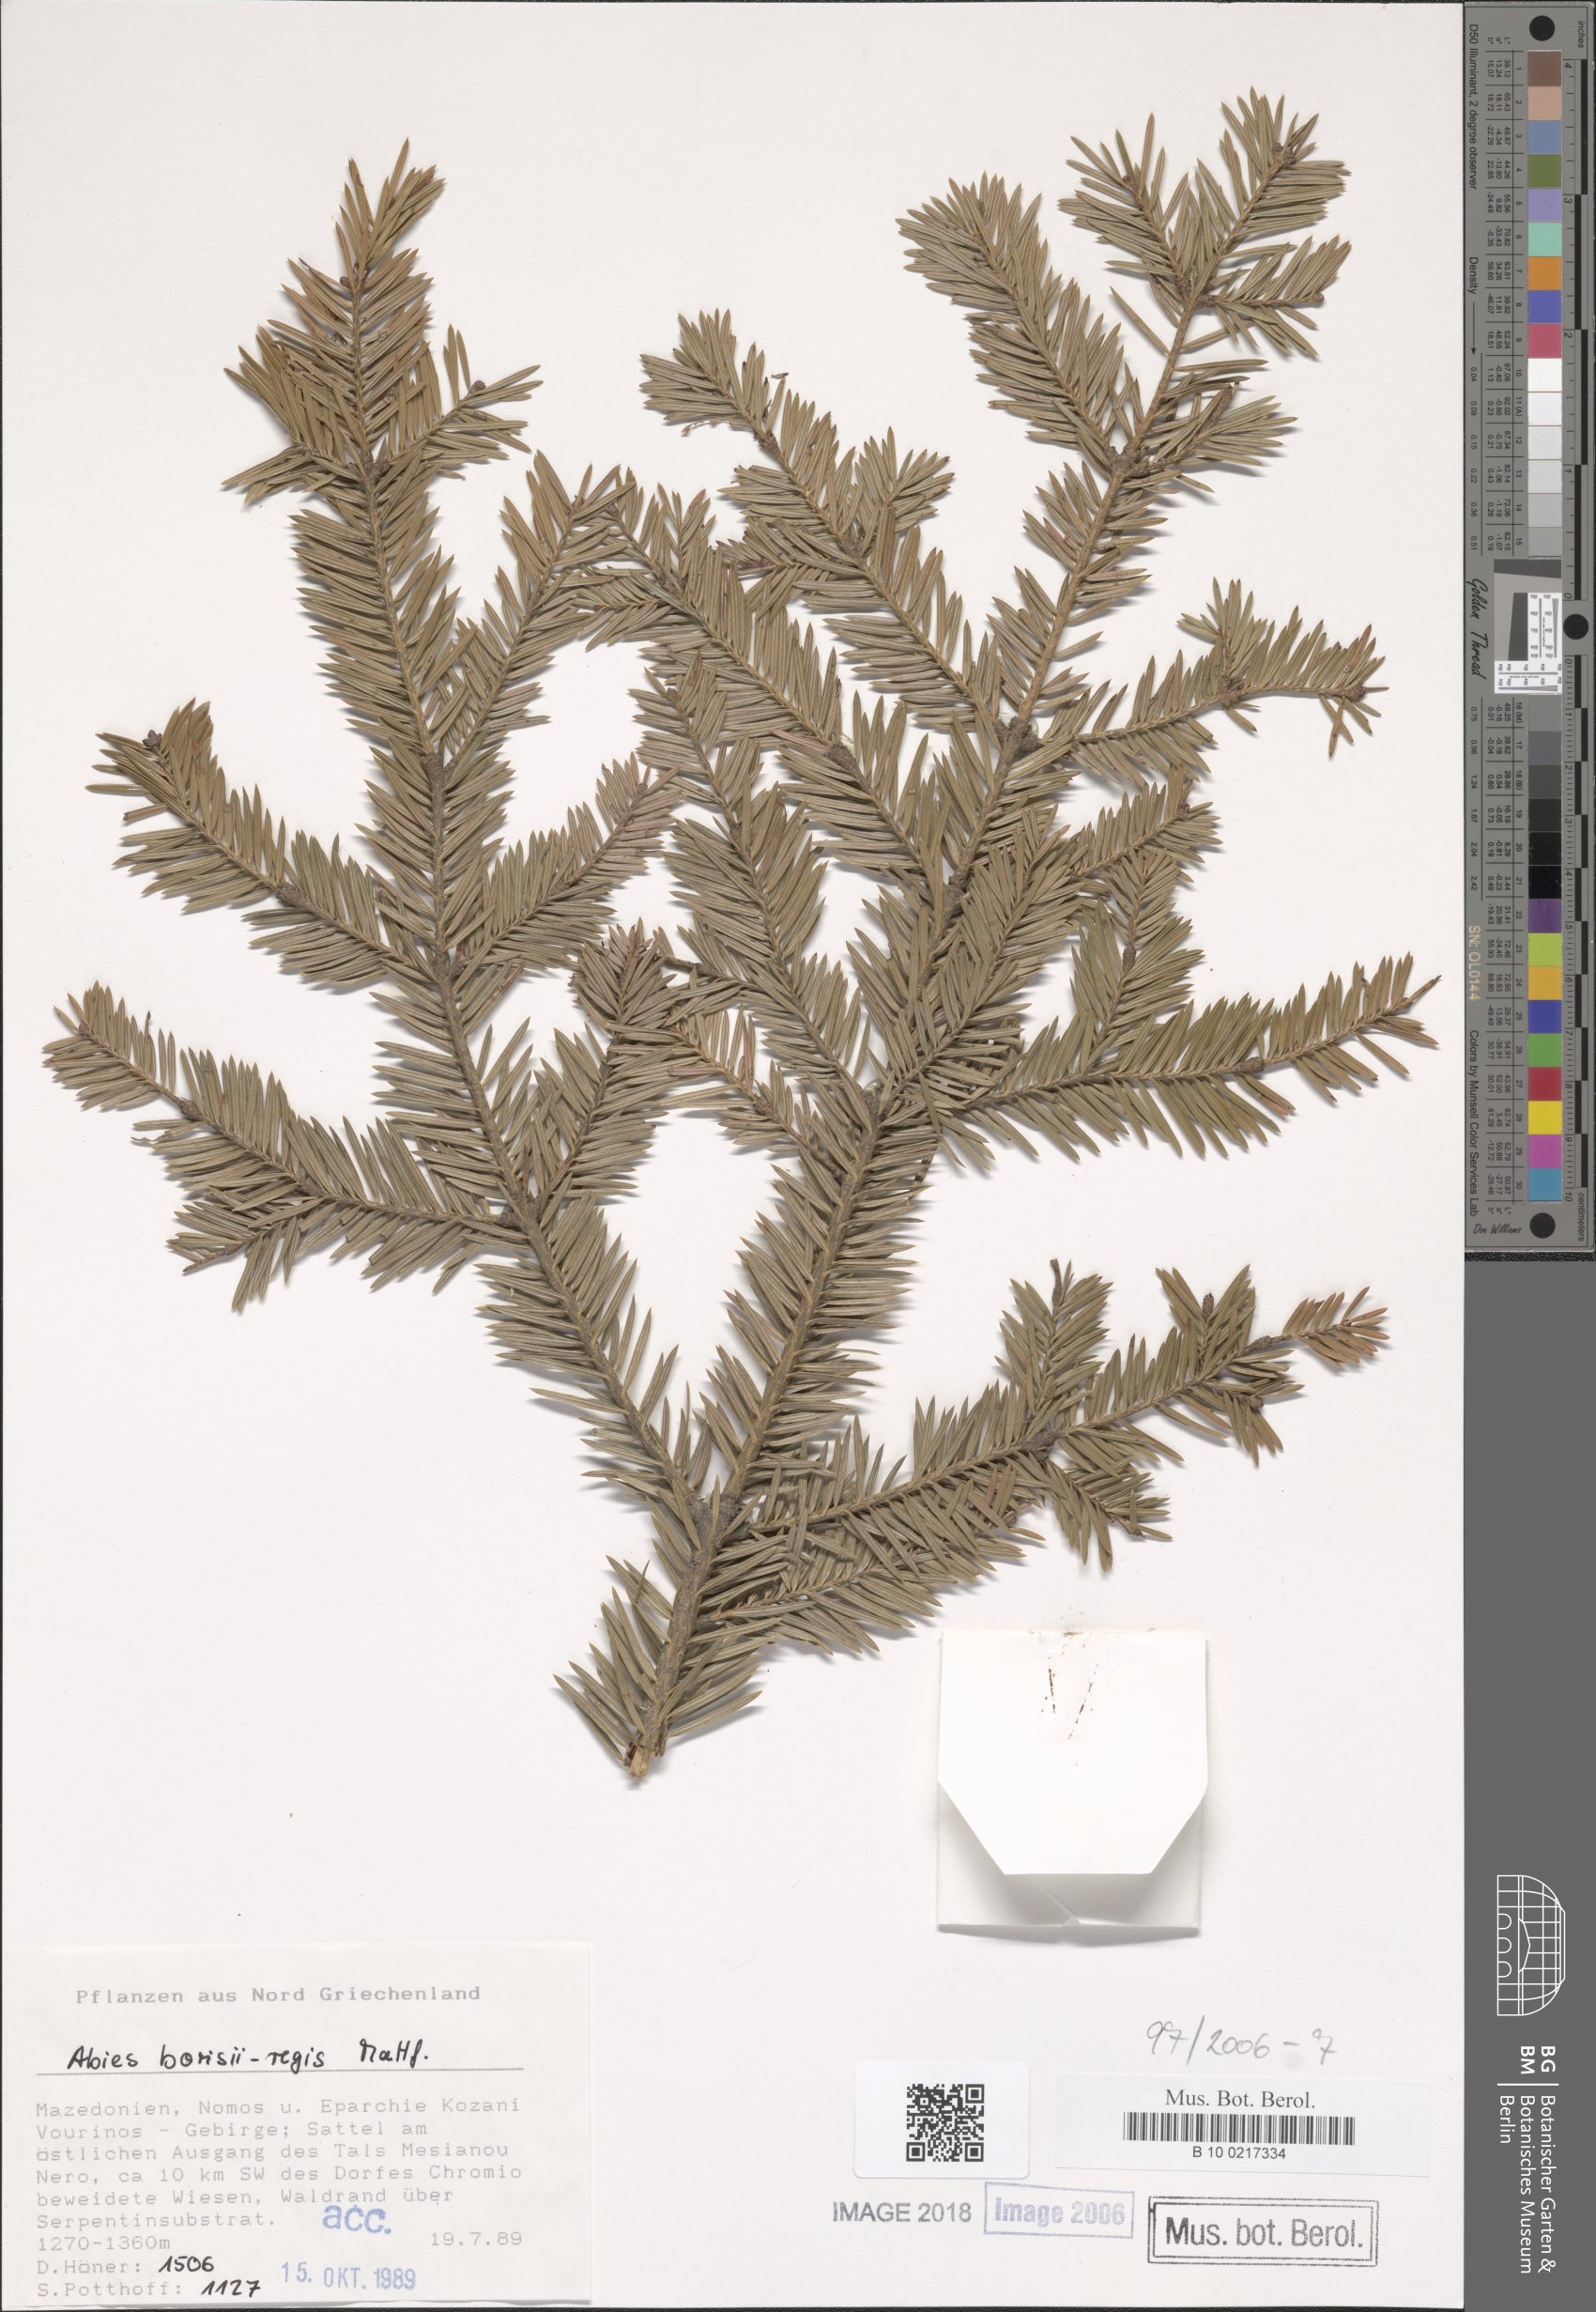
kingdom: Plantae
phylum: Tracheophyta
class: Pinopsida
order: Pinales
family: Pinaceae
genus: Abies
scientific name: Abies borisii-regis
